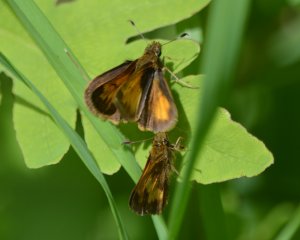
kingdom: Animalia
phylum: Arthropoda
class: Insecta
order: Lepidoptera
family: Hesperiidae
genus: Lon
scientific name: Lon hobomok
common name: Hobomok Skipper
